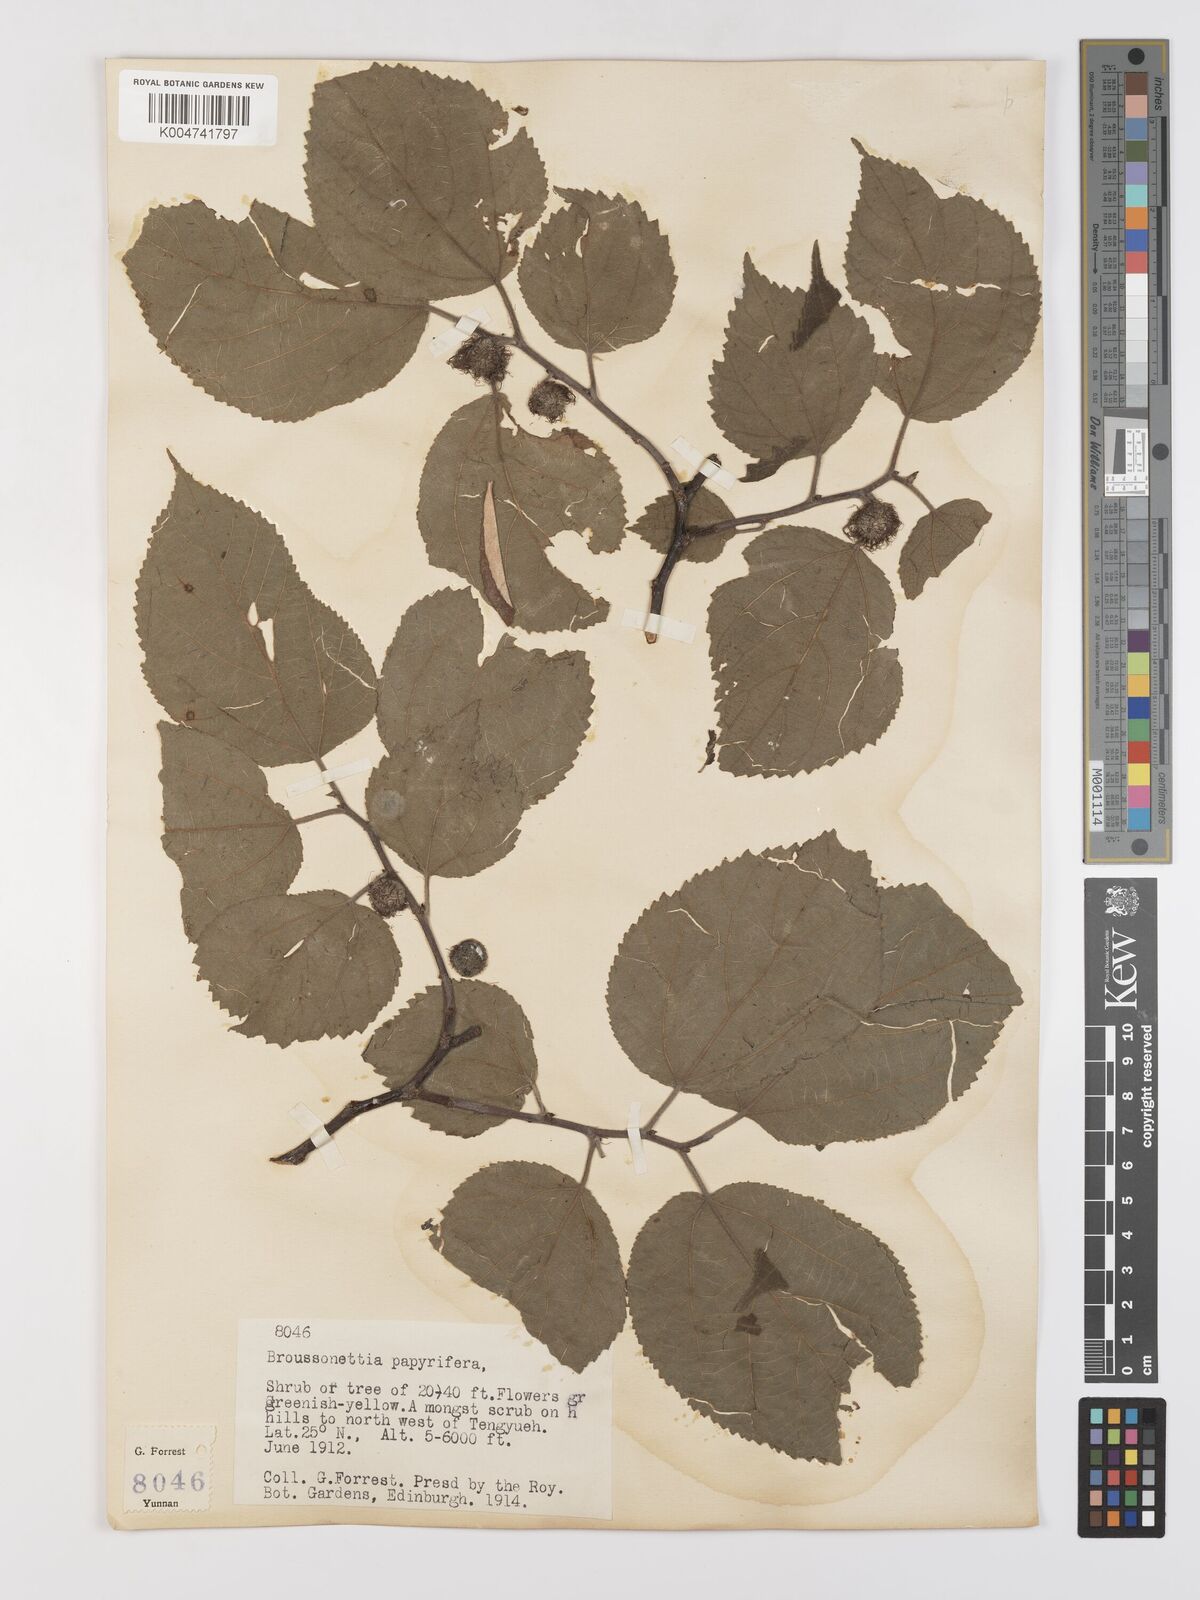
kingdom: Plantae
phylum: Tracheophyta
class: Magnoliopsida
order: Rosales
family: Moraceae
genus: Broussonetia
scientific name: Broussonetia papyrifera
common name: Paper mulberry
